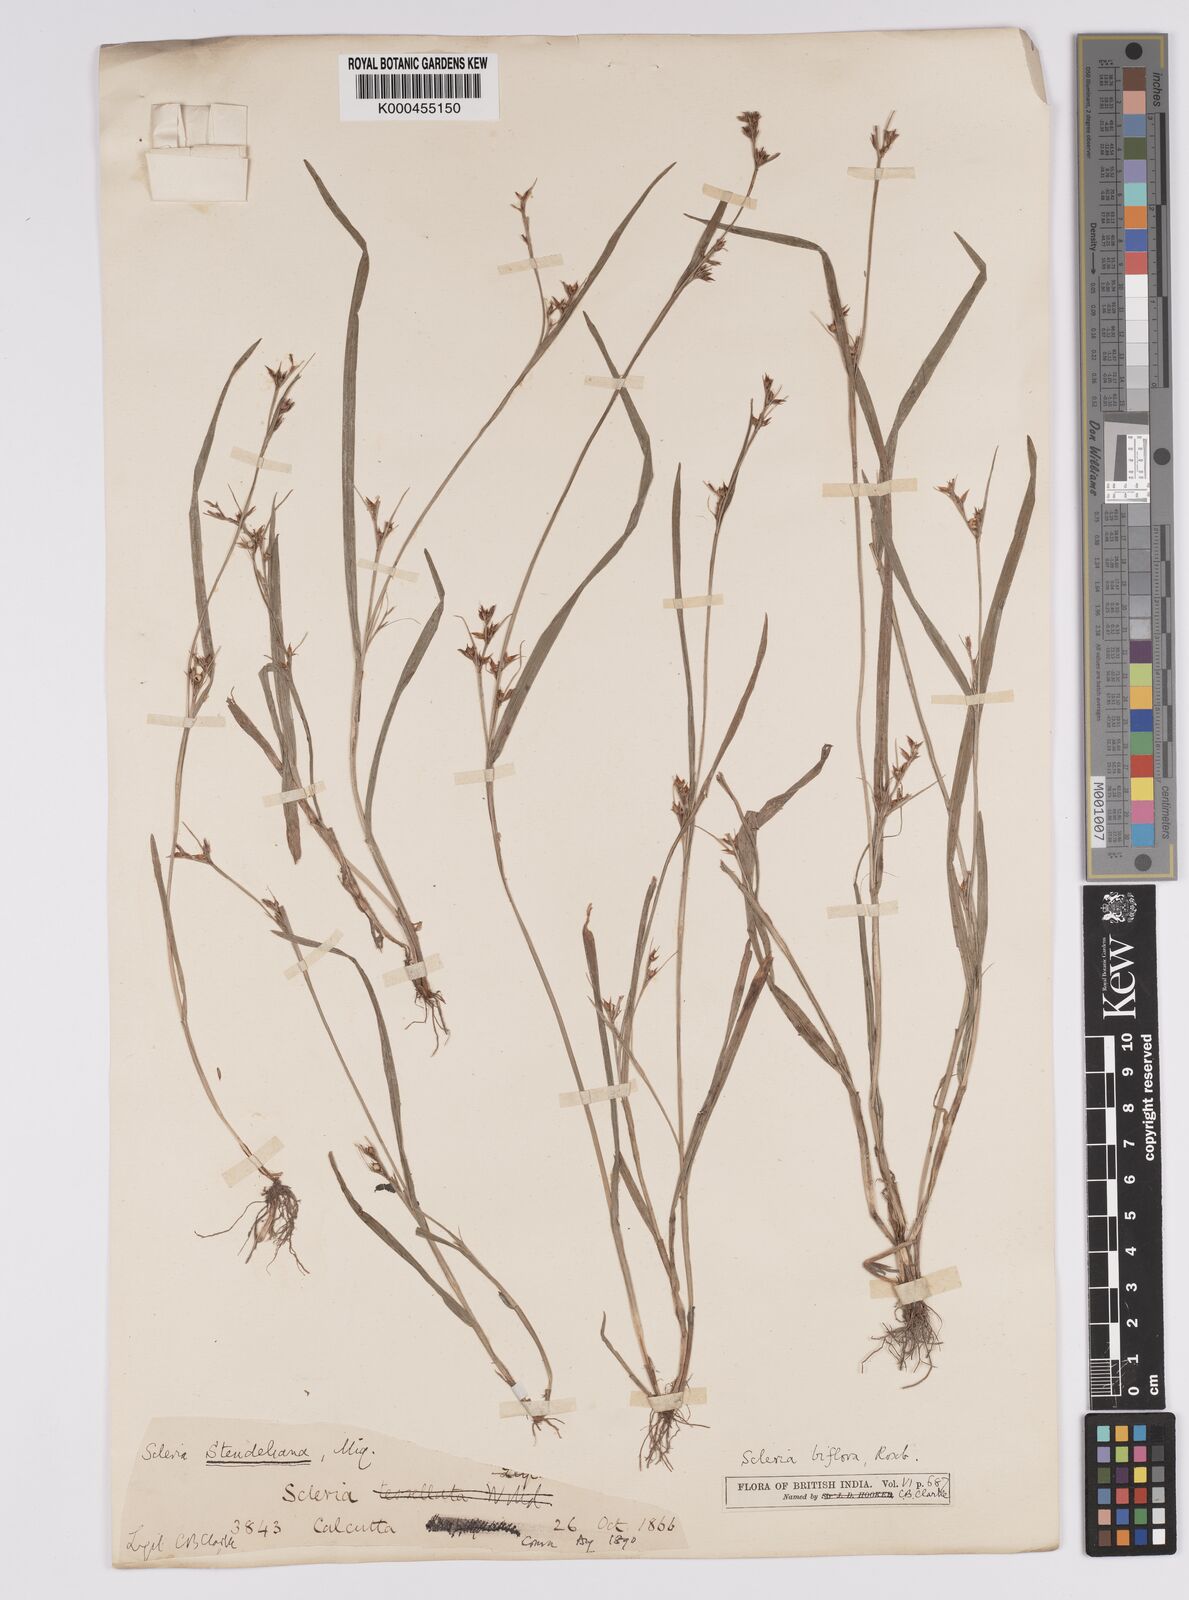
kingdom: Plantae
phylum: Tracheophyta
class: Liliopsida
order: Poales
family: Cyperaceae
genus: Scleria
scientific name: Scleria biflora
